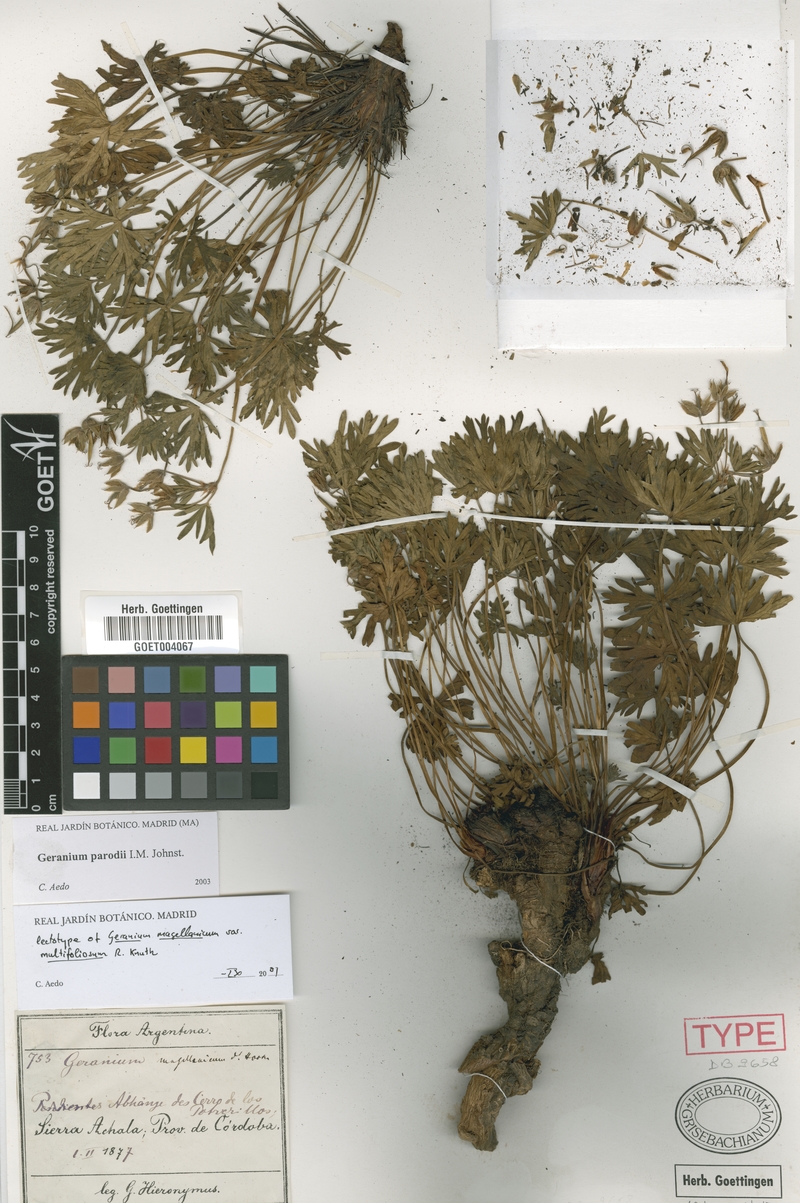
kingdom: Plantae
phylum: Tracheophyta
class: Magnoliopsida
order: Geraniales
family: Geraniaceae
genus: Geranium
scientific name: Geranium parodii
